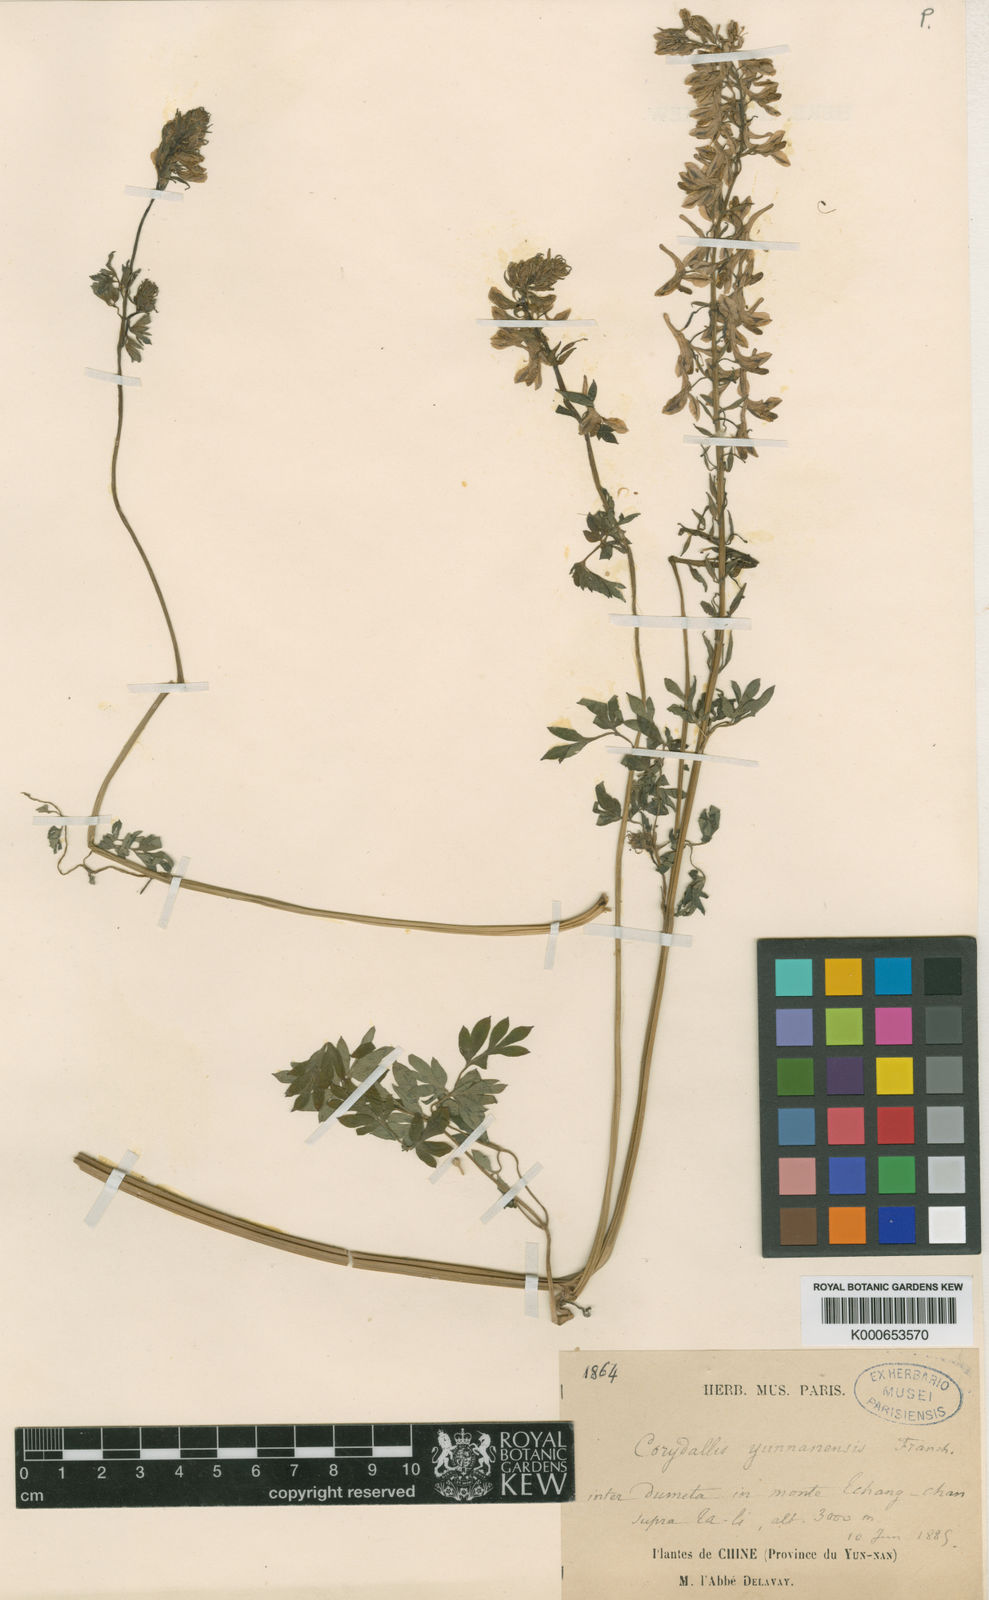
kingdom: Plantae
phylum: Tracheophyta
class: Magnoliopsida
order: Ranunculales
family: Papaveraceae
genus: Corydalis
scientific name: Corydalis yunnanensis
